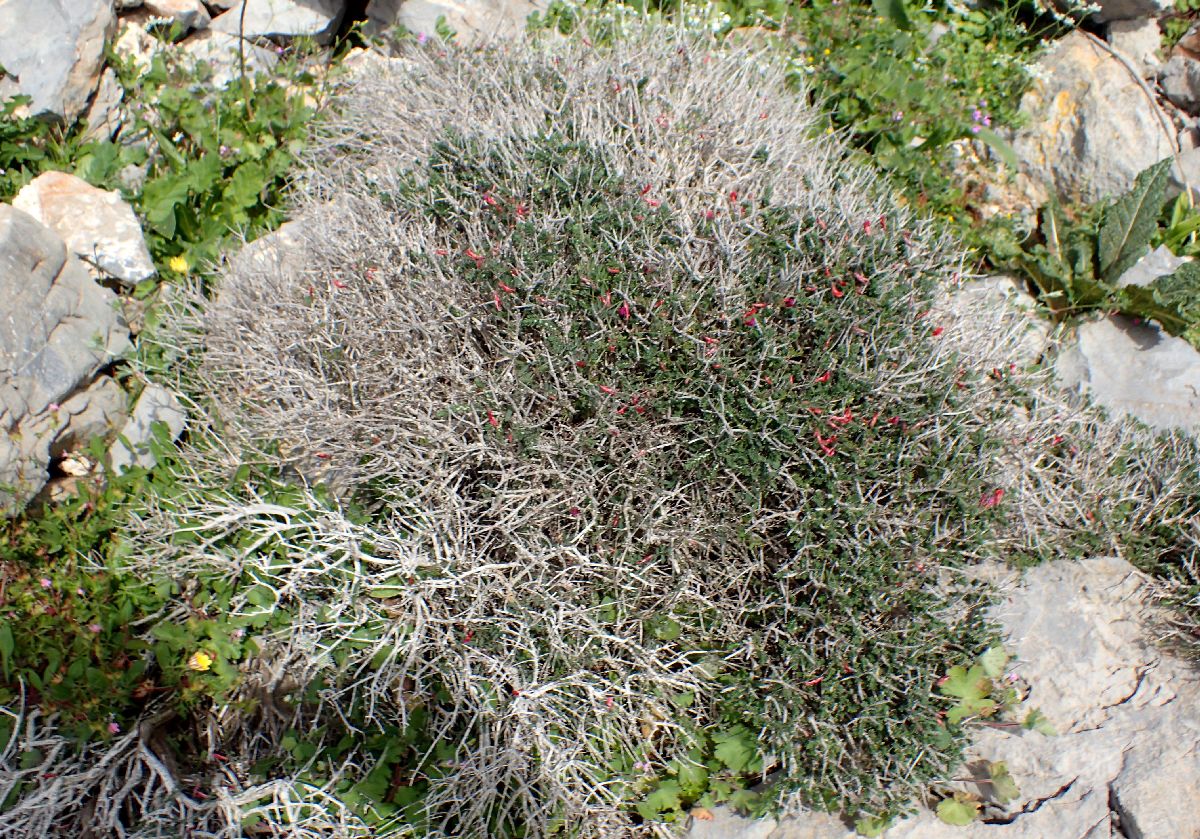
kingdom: Plantae
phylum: Tracheophyta
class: Magnoliopsida
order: Fabales
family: Fabaceae
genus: Vicia
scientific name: Vicia cretica
